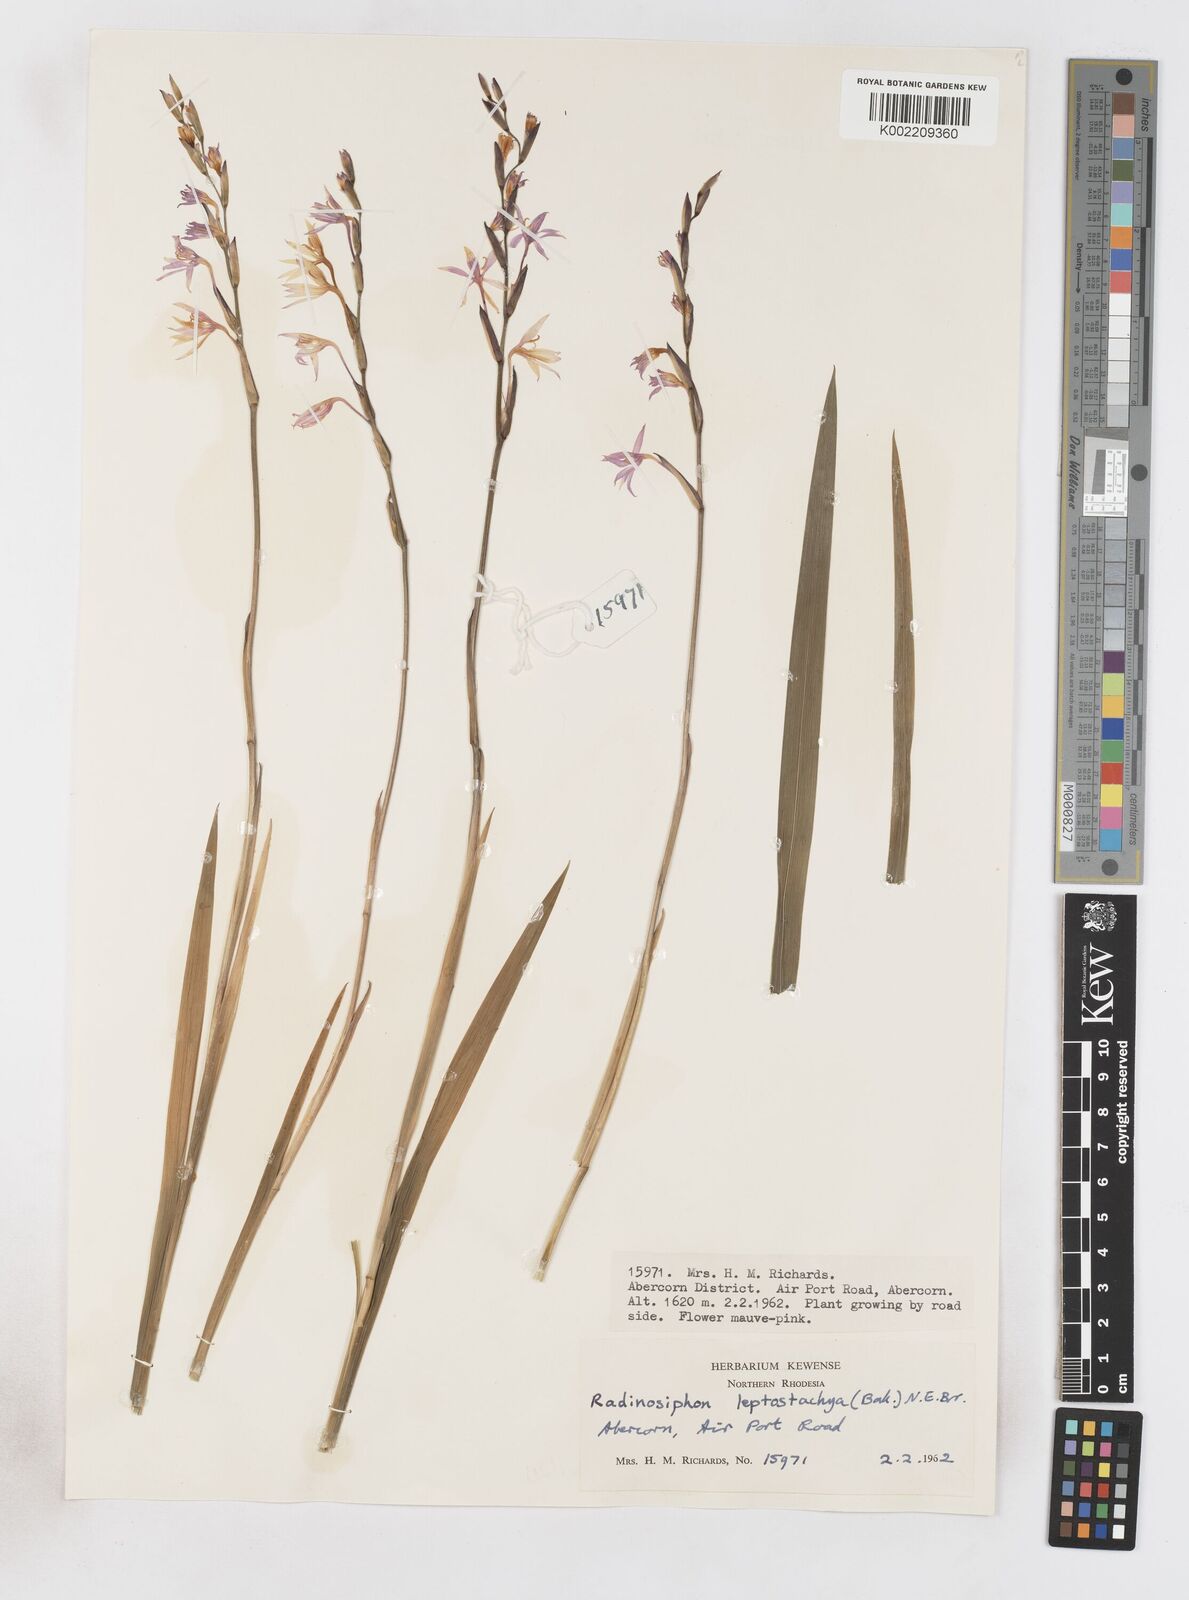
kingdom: Plantae
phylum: Tracheophyta
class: Liliopsida
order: Asparagales
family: Iridaceae
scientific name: Iridaceae
